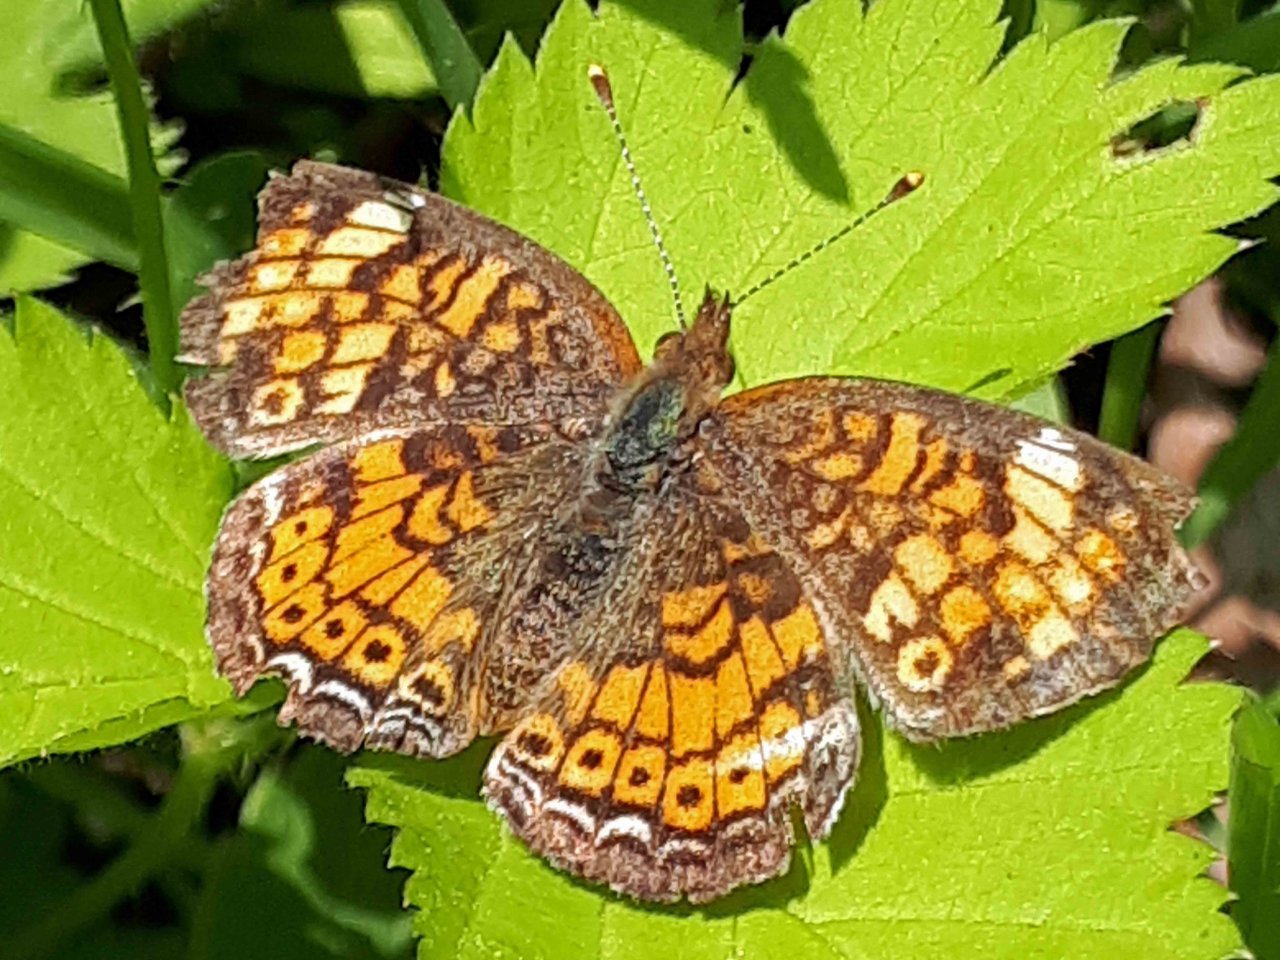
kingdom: Animalia
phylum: Arthropoda
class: Insecta
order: Lepidoptera
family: Nymphalidae
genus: Phyciodes
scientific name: Phyciodes tharos
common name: Pearl Crescent
